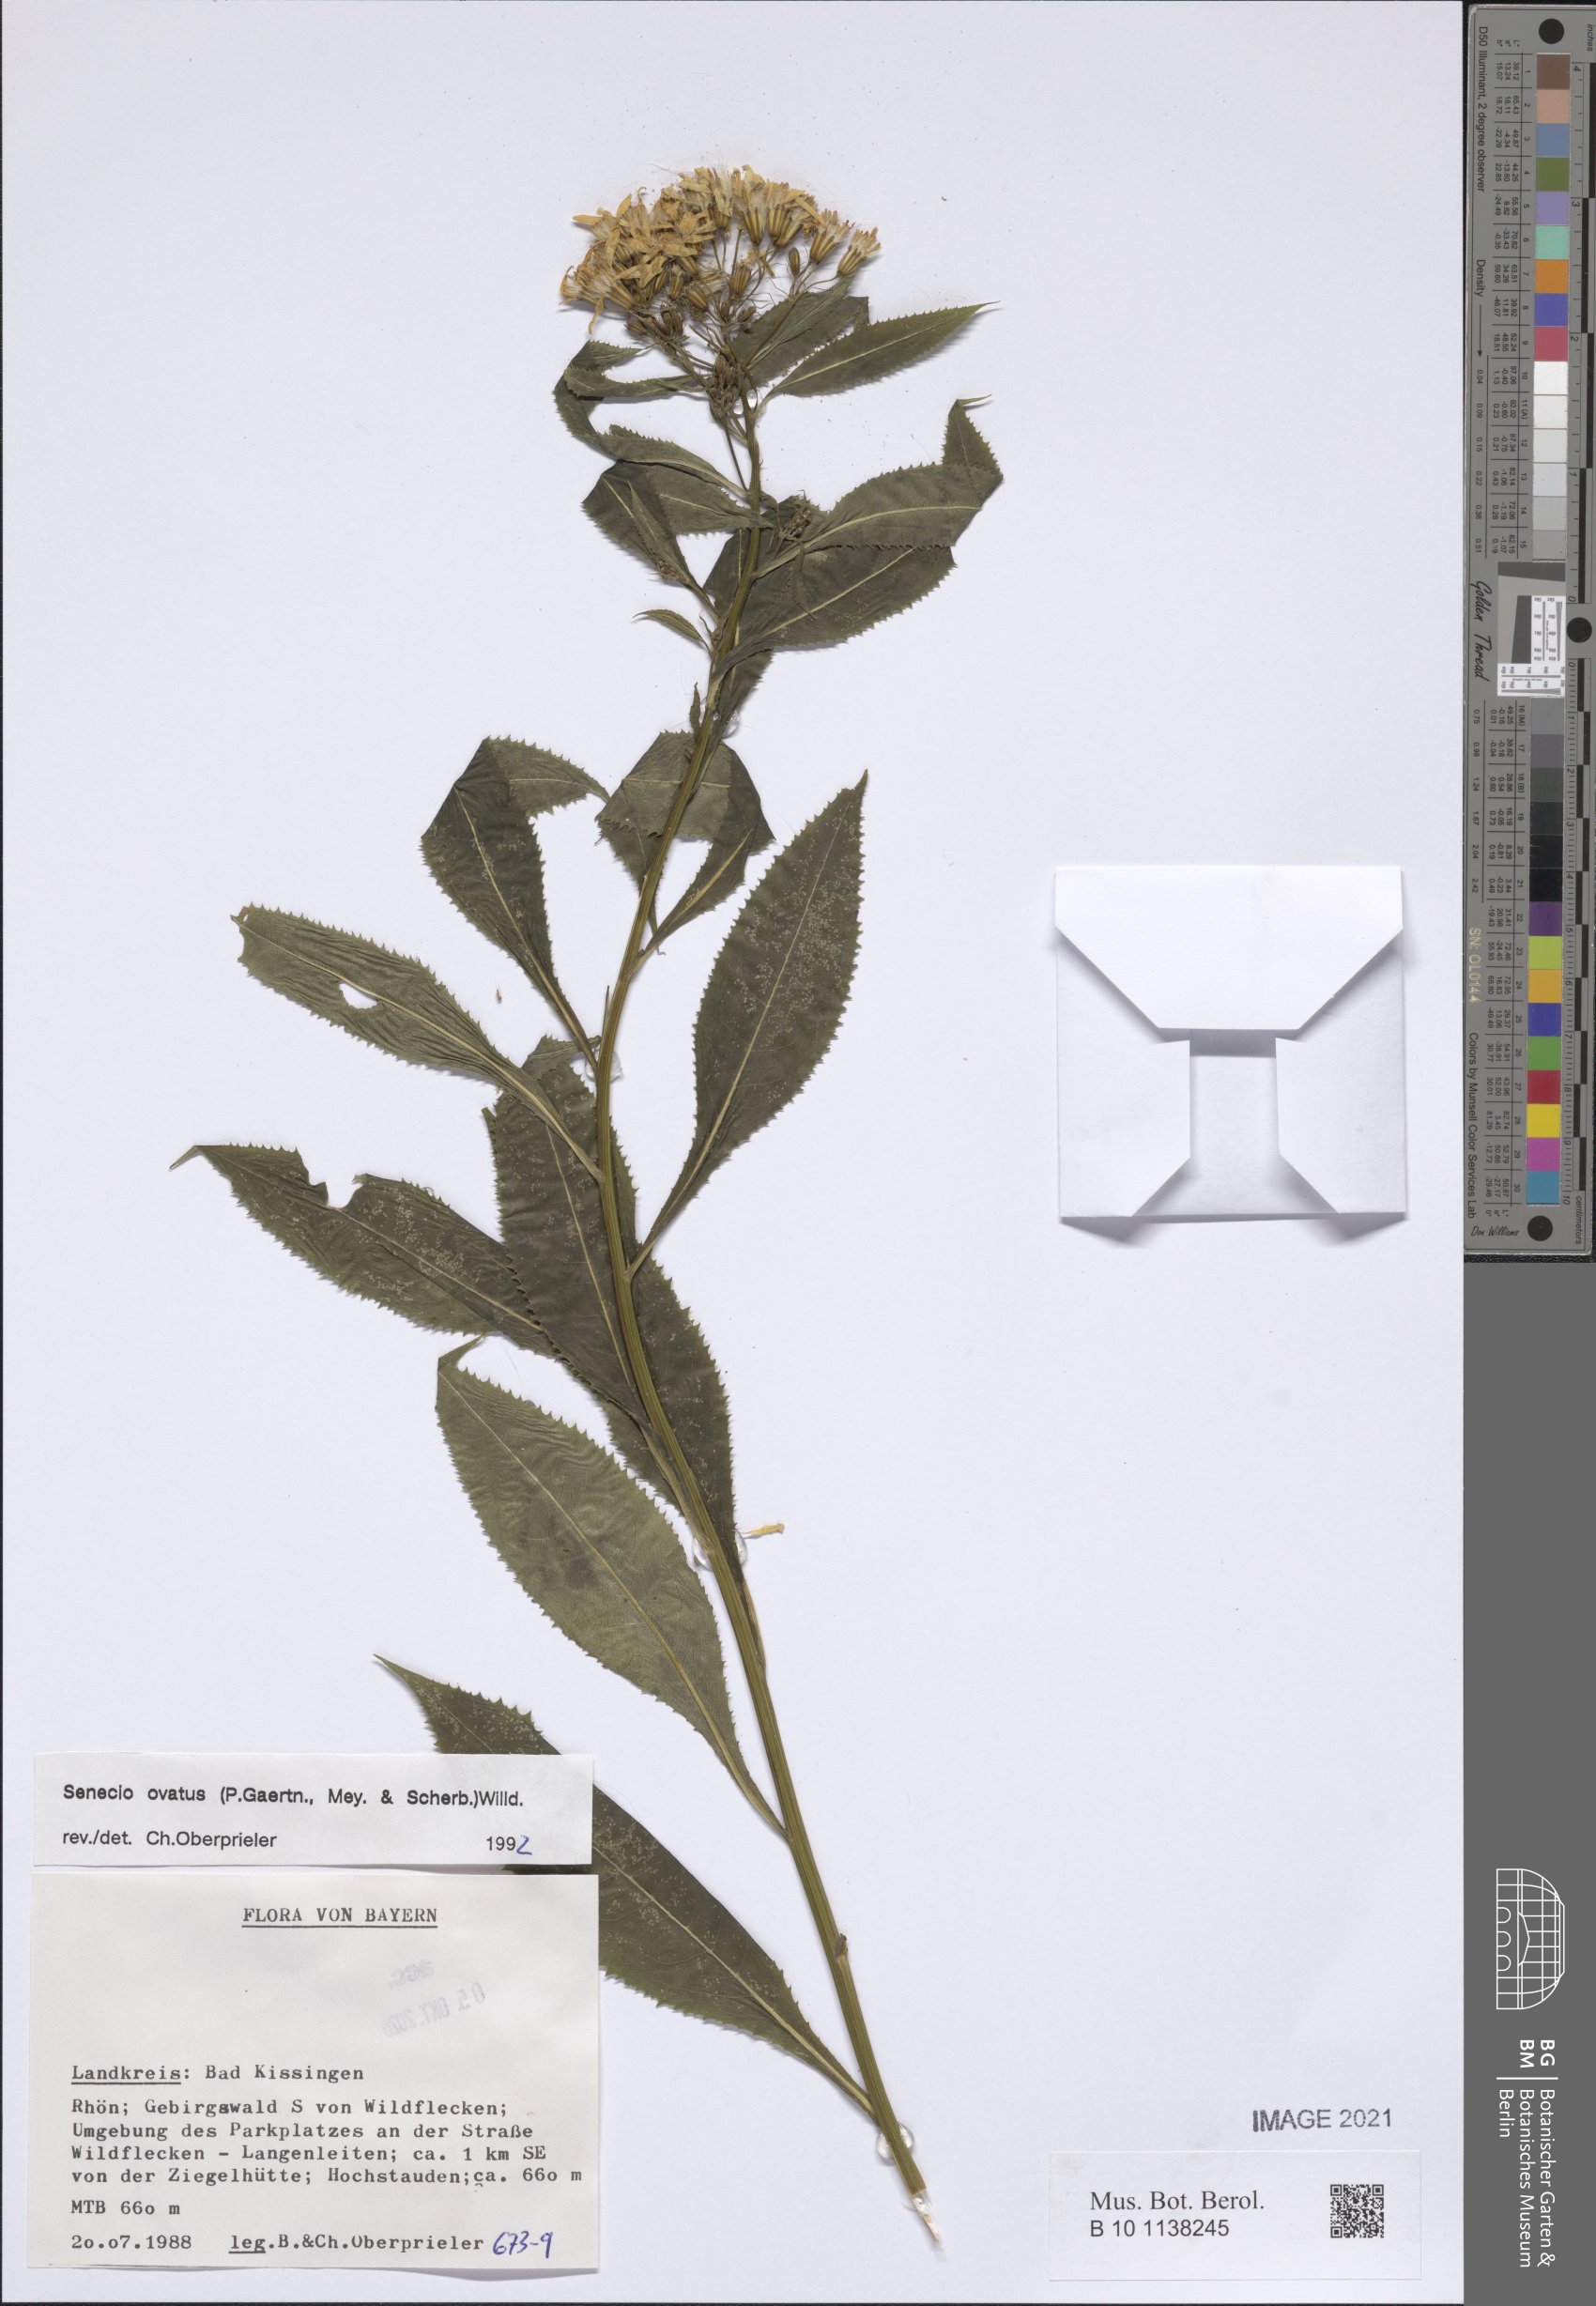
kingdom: Plantae
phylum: Tracheophyta
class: Magnoliopsida
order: Asterales
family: Asteraceae
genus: Senecio
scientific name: Senecio ovatus
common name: Wood ragwort
